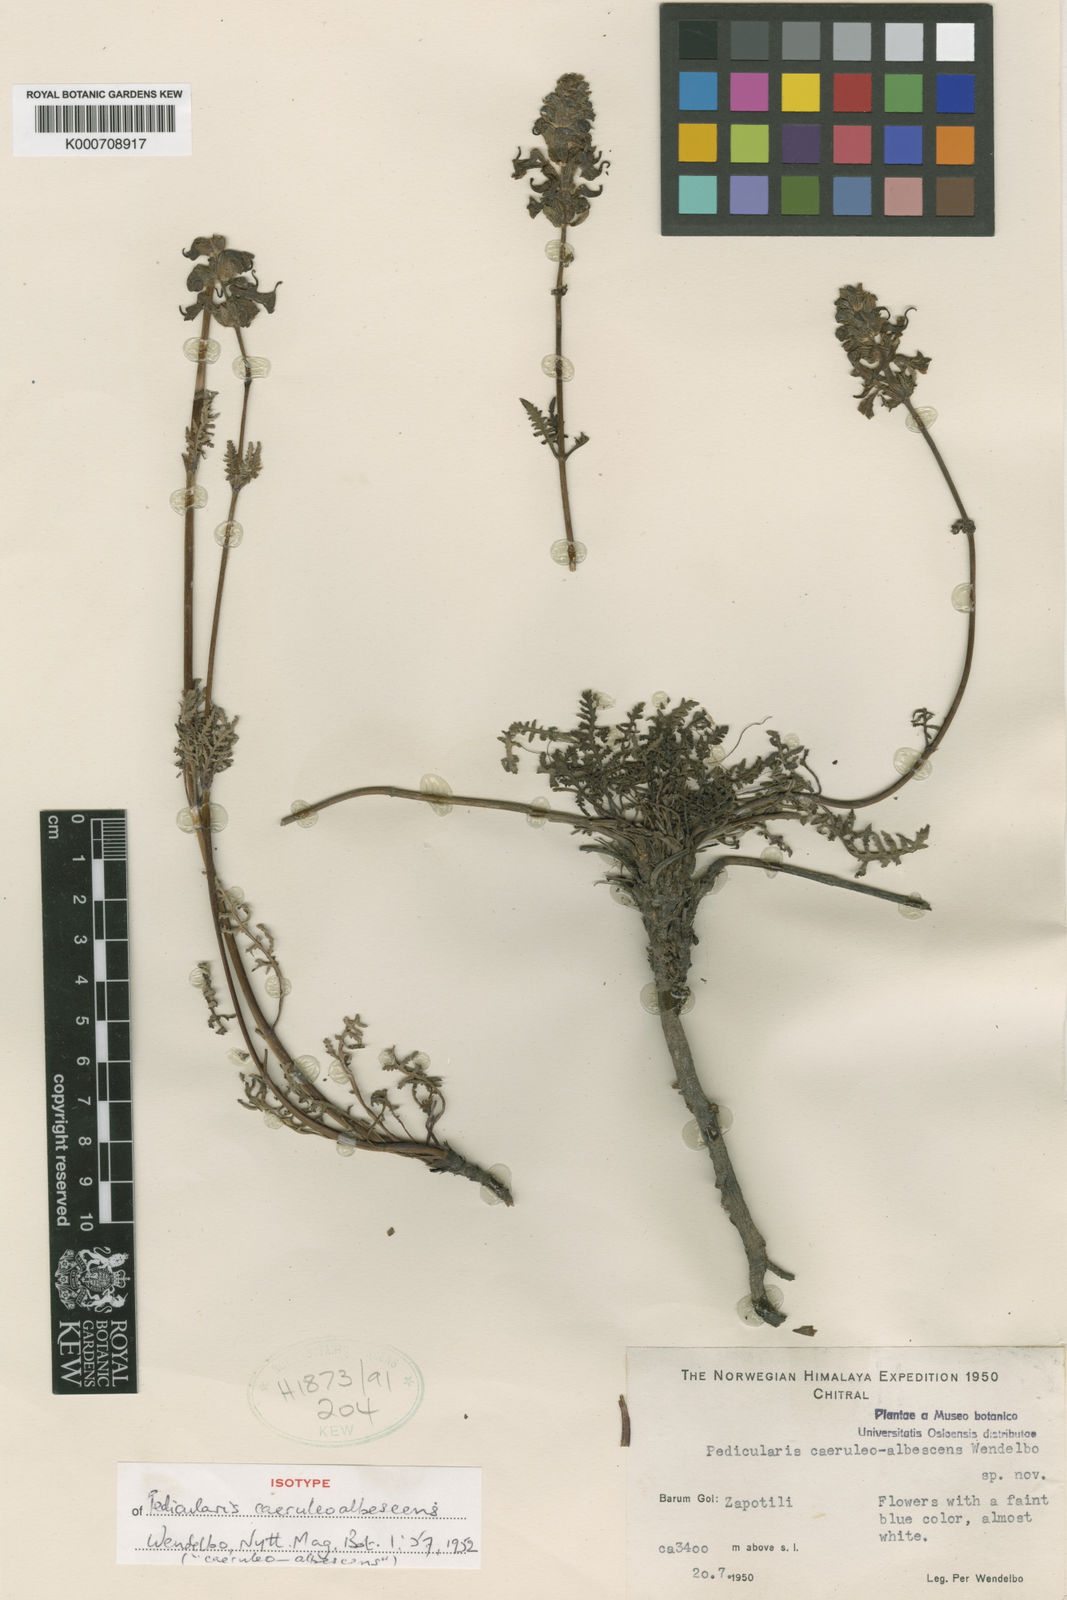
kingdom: Plantae
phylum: Tracheophyta
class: Magnoliopsida
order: Lamiales
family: Orobanchaceae
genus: Pedicularis
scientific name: Pedicularis
